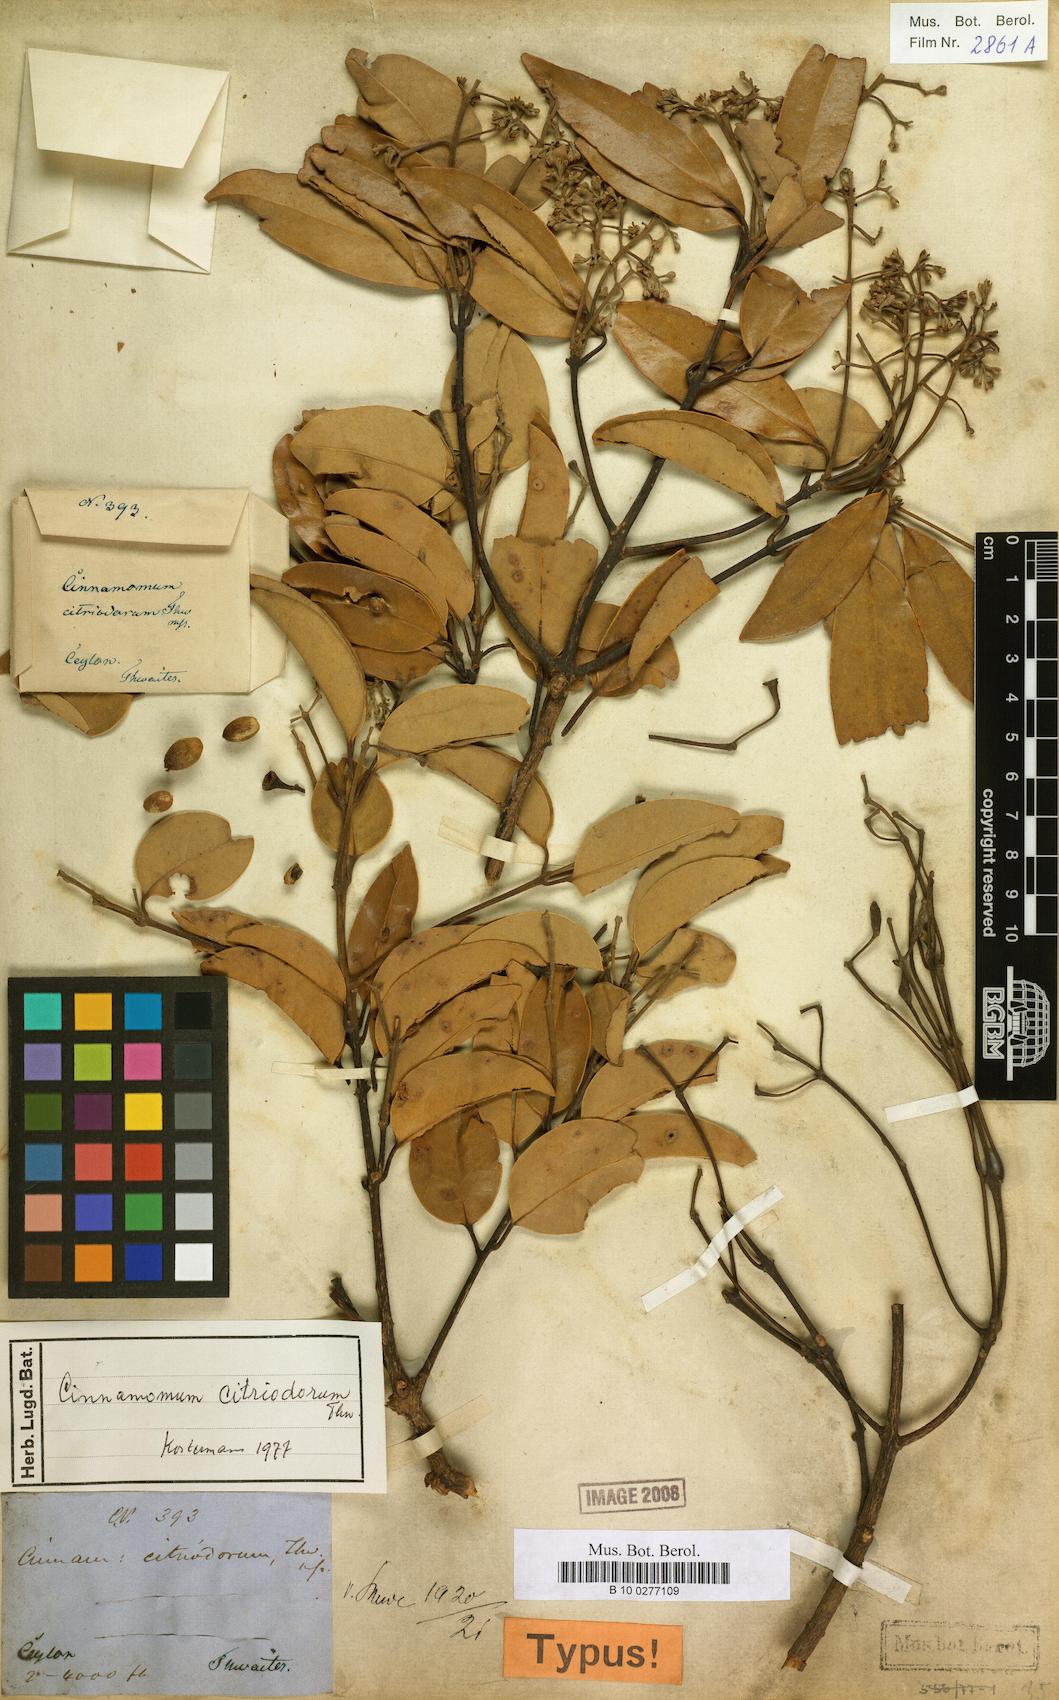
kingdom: Plantae
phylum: Tracheophyta
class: Magnoliopsida
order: Laurales
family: Lauraceae
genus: Cinnamomum
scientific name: Cinnamomum citriodorum
